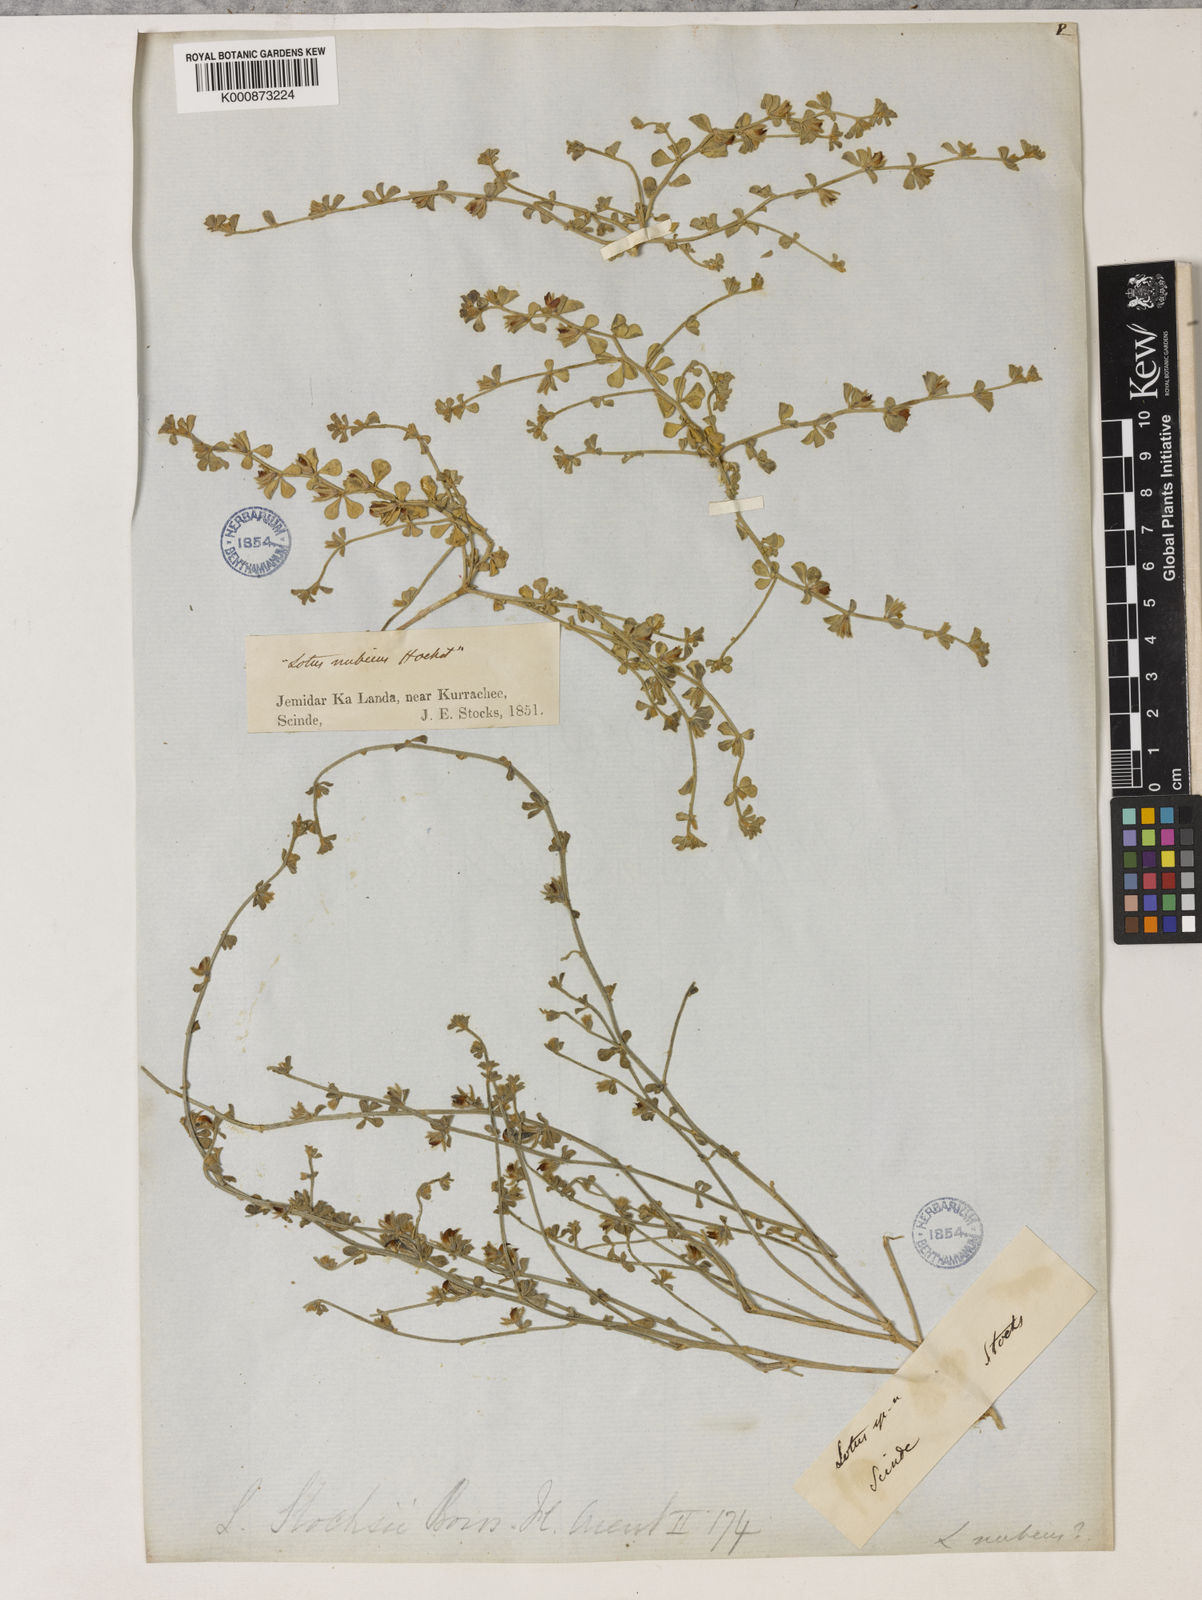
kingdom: Plantae
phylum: Tracheophyta
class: Magnoliopsida
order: Fabales
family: Fabaceae
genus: Lotus
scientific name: Lotus
